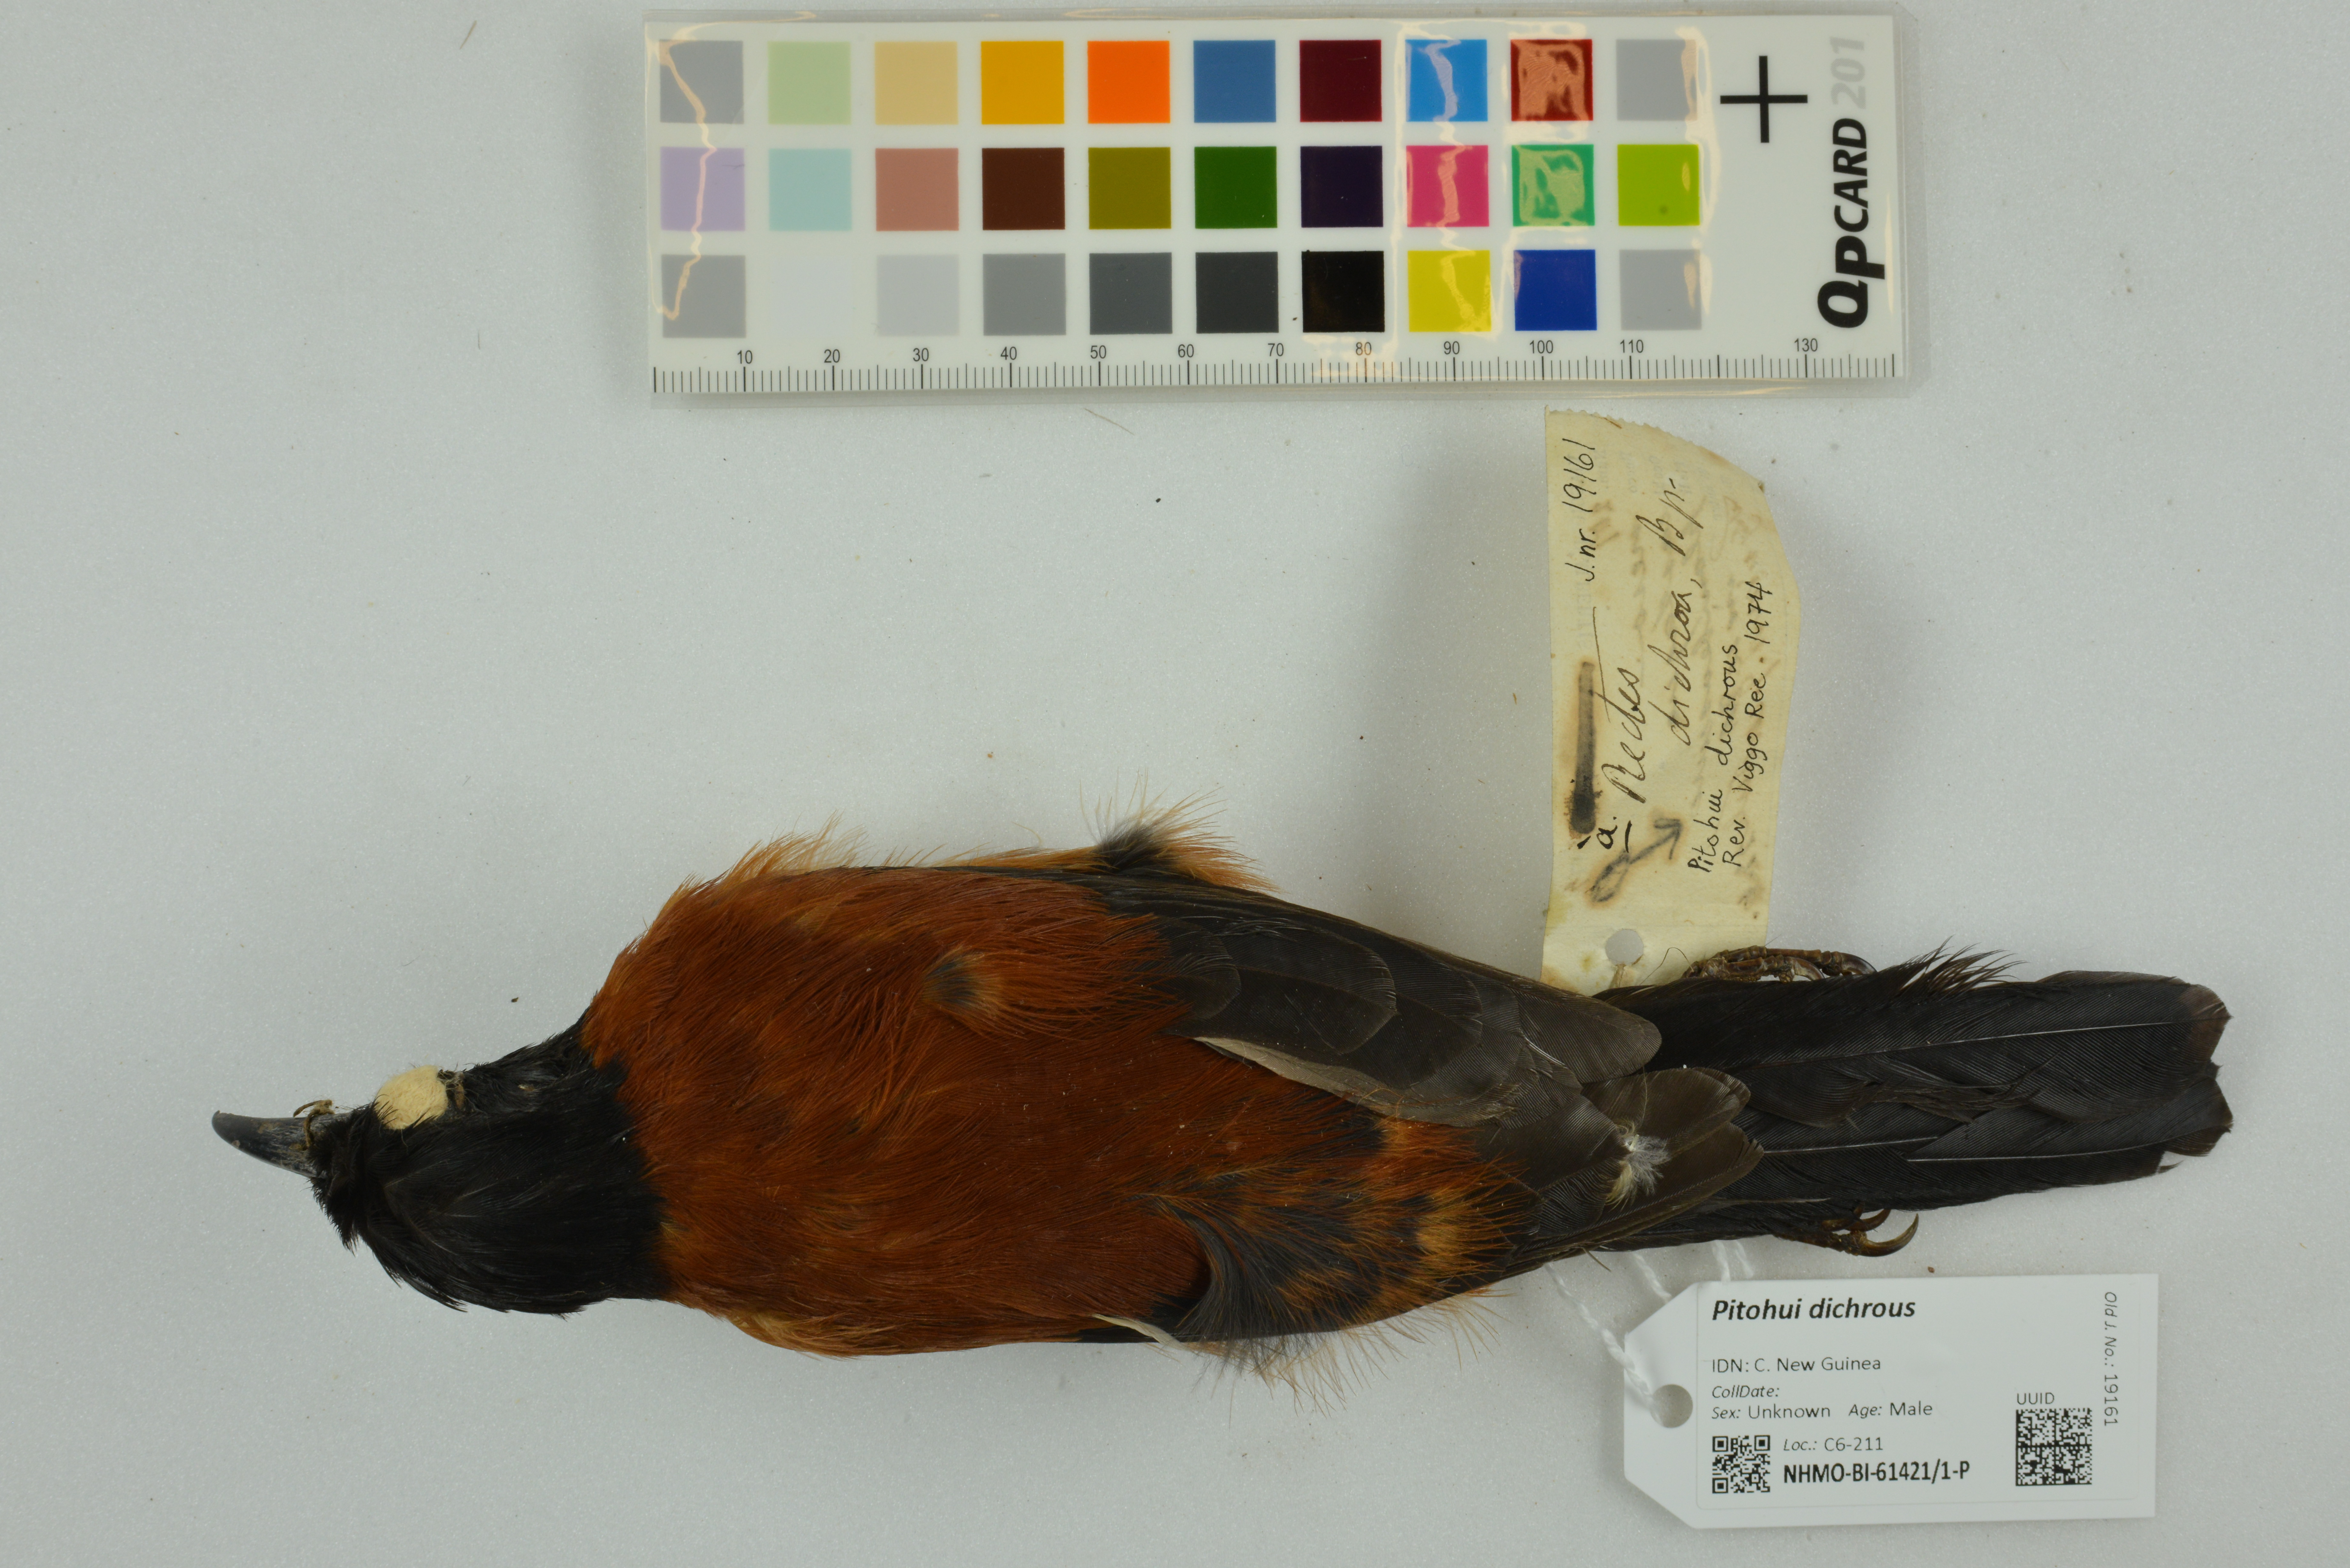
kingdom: Animalia
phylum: Chordata
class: Aves
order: Passeriformes
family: Oriolidae
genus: Pitohui
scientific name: Pitohui dichrous
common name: Hooded pitohui
